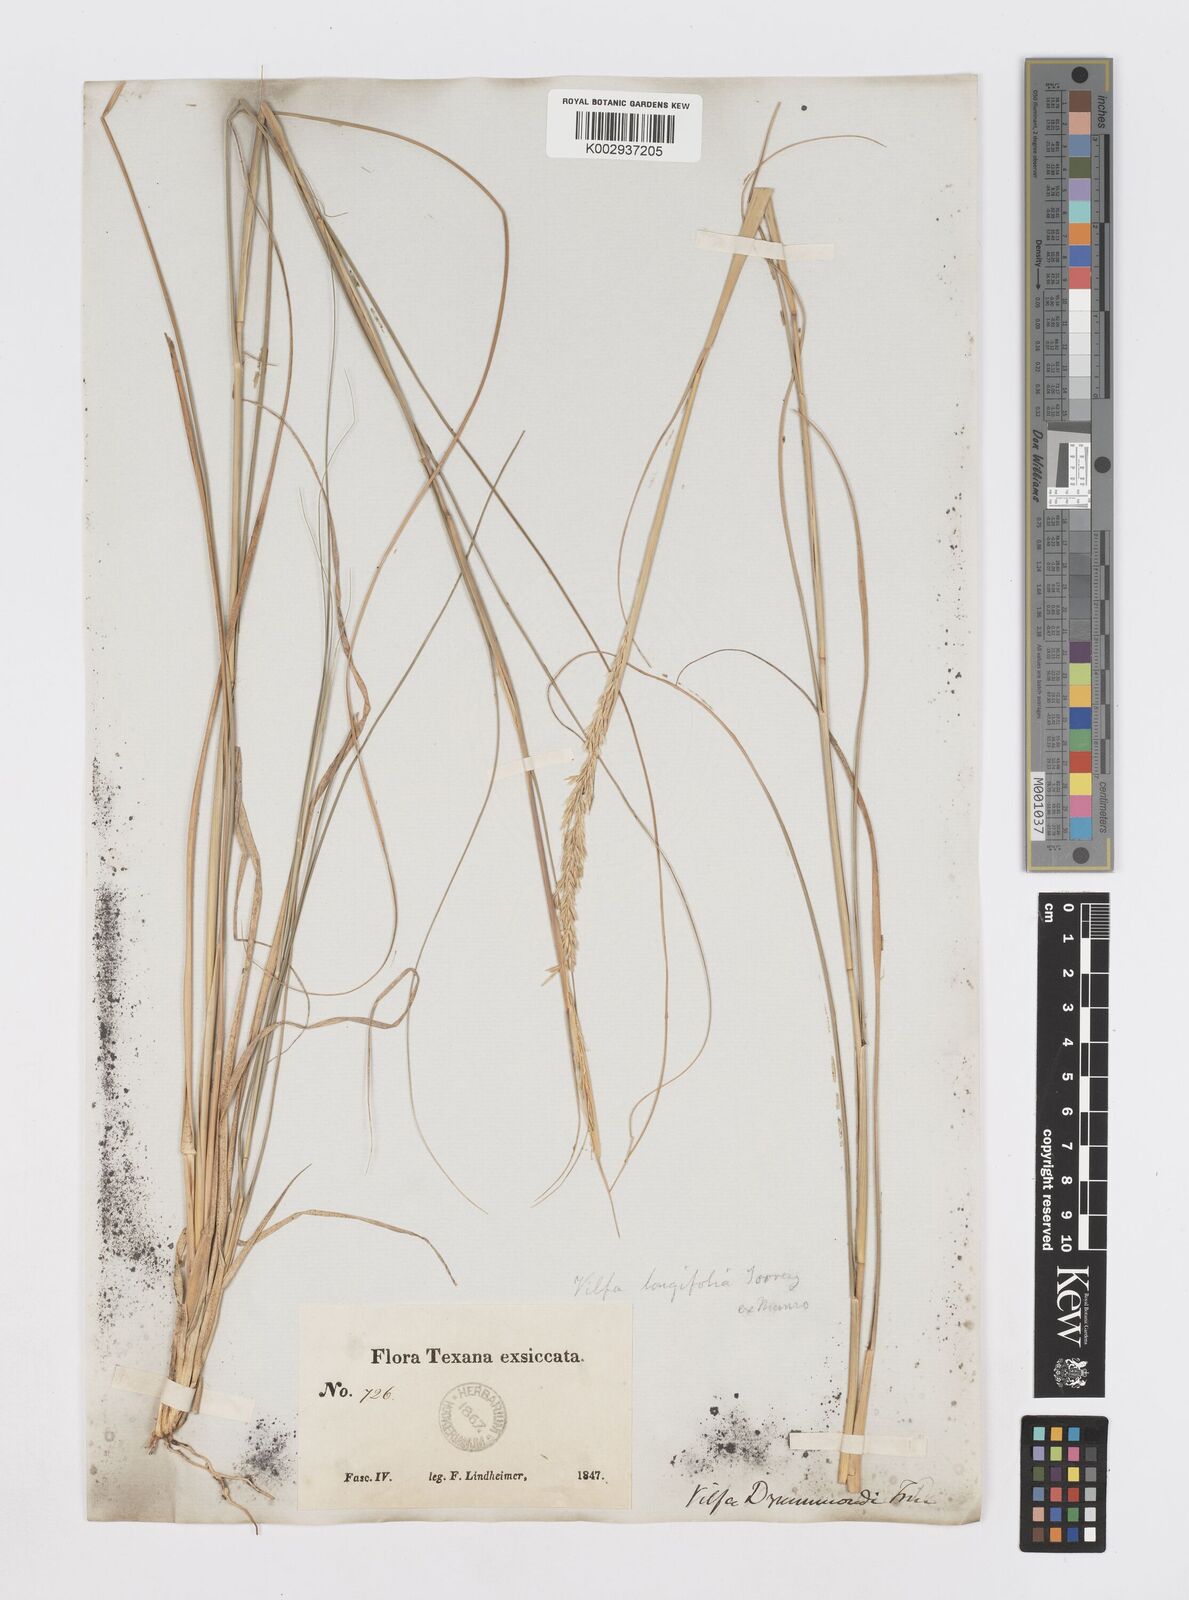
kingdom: Plantae
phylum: Tracheophyta
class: Liliopsida
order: Poales
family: Poaceae
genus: Sporobolus
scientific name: Sporobolus compositus
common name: Rough dropseed
